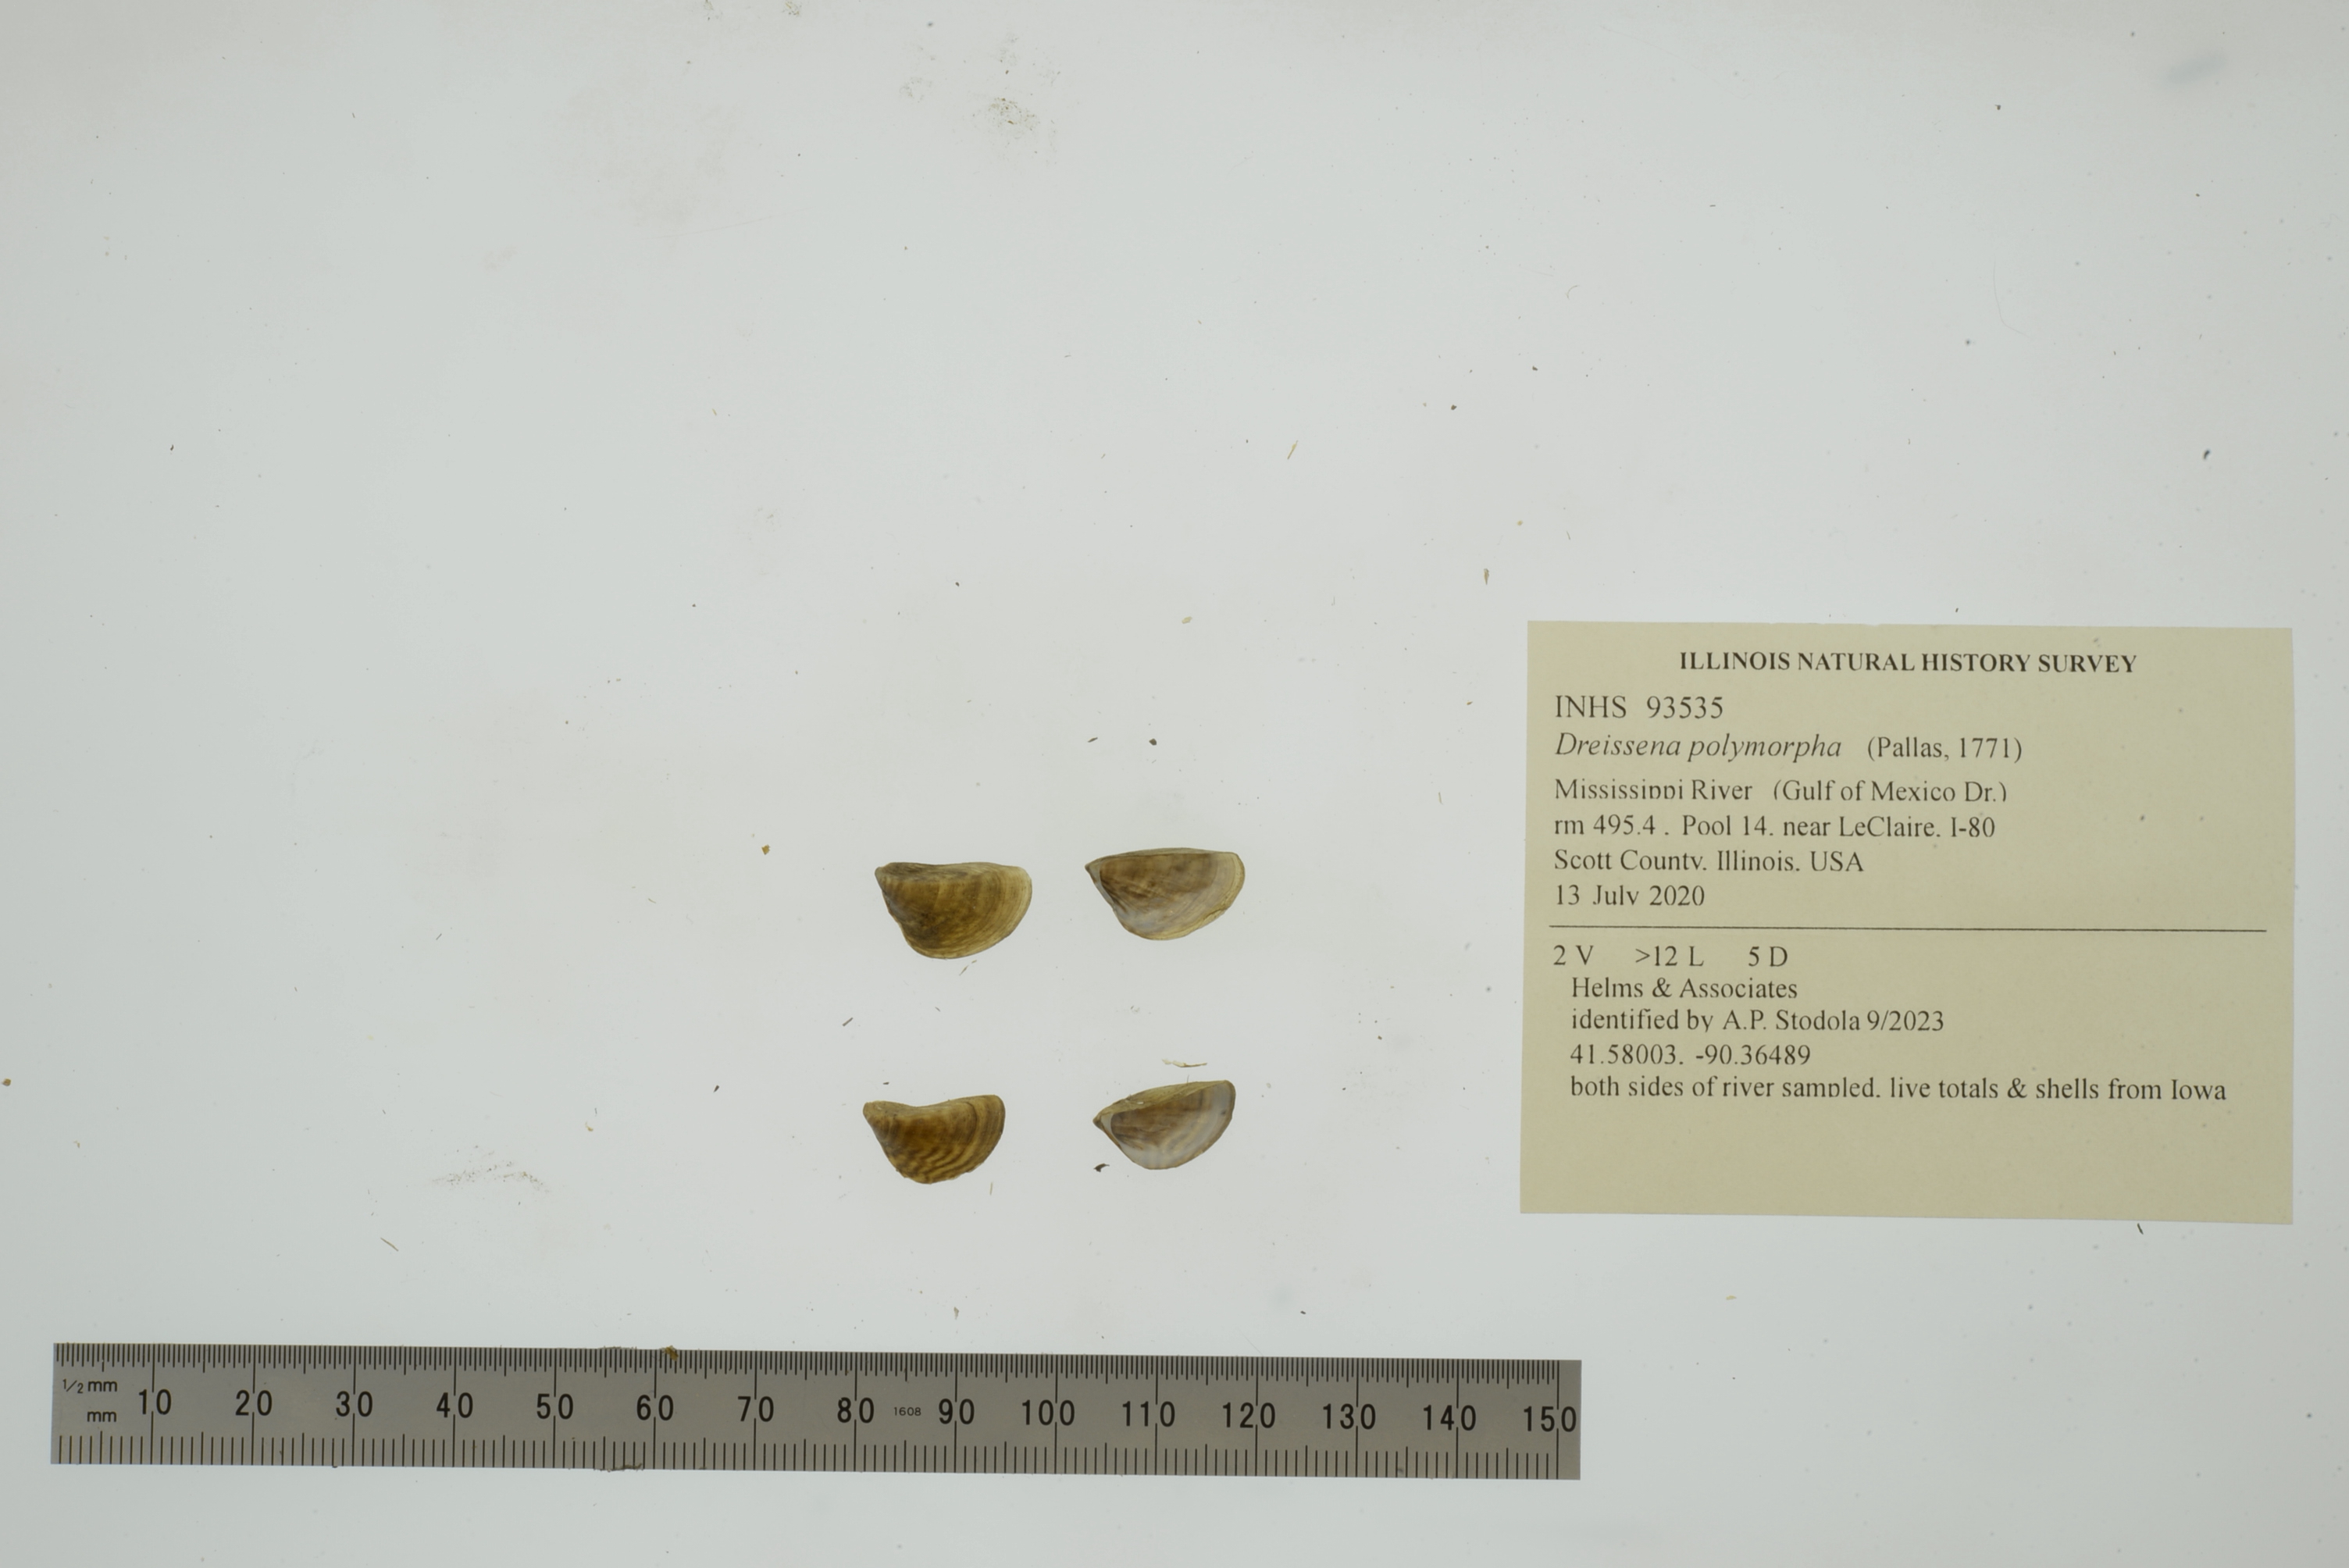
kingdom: Animalia
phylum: Mollusca
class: Bivalvia
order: Myida
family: Dreissenidae
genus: Dreissena
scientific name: Dreissena polymorpha
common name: Zebra mussel
